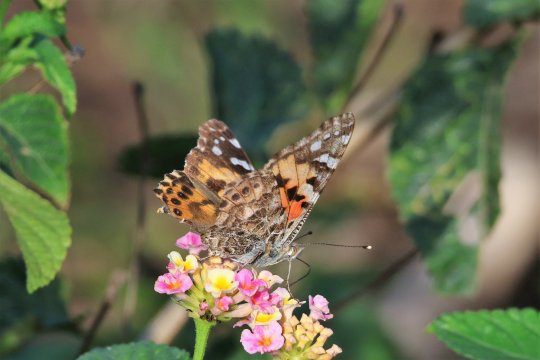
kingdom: Animalia
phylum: Arthropoda
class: Insecta
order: Lepidoptera
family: Nymphalidae
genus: Vanessa
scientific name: Vanessa cardui
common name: Painted Lady
